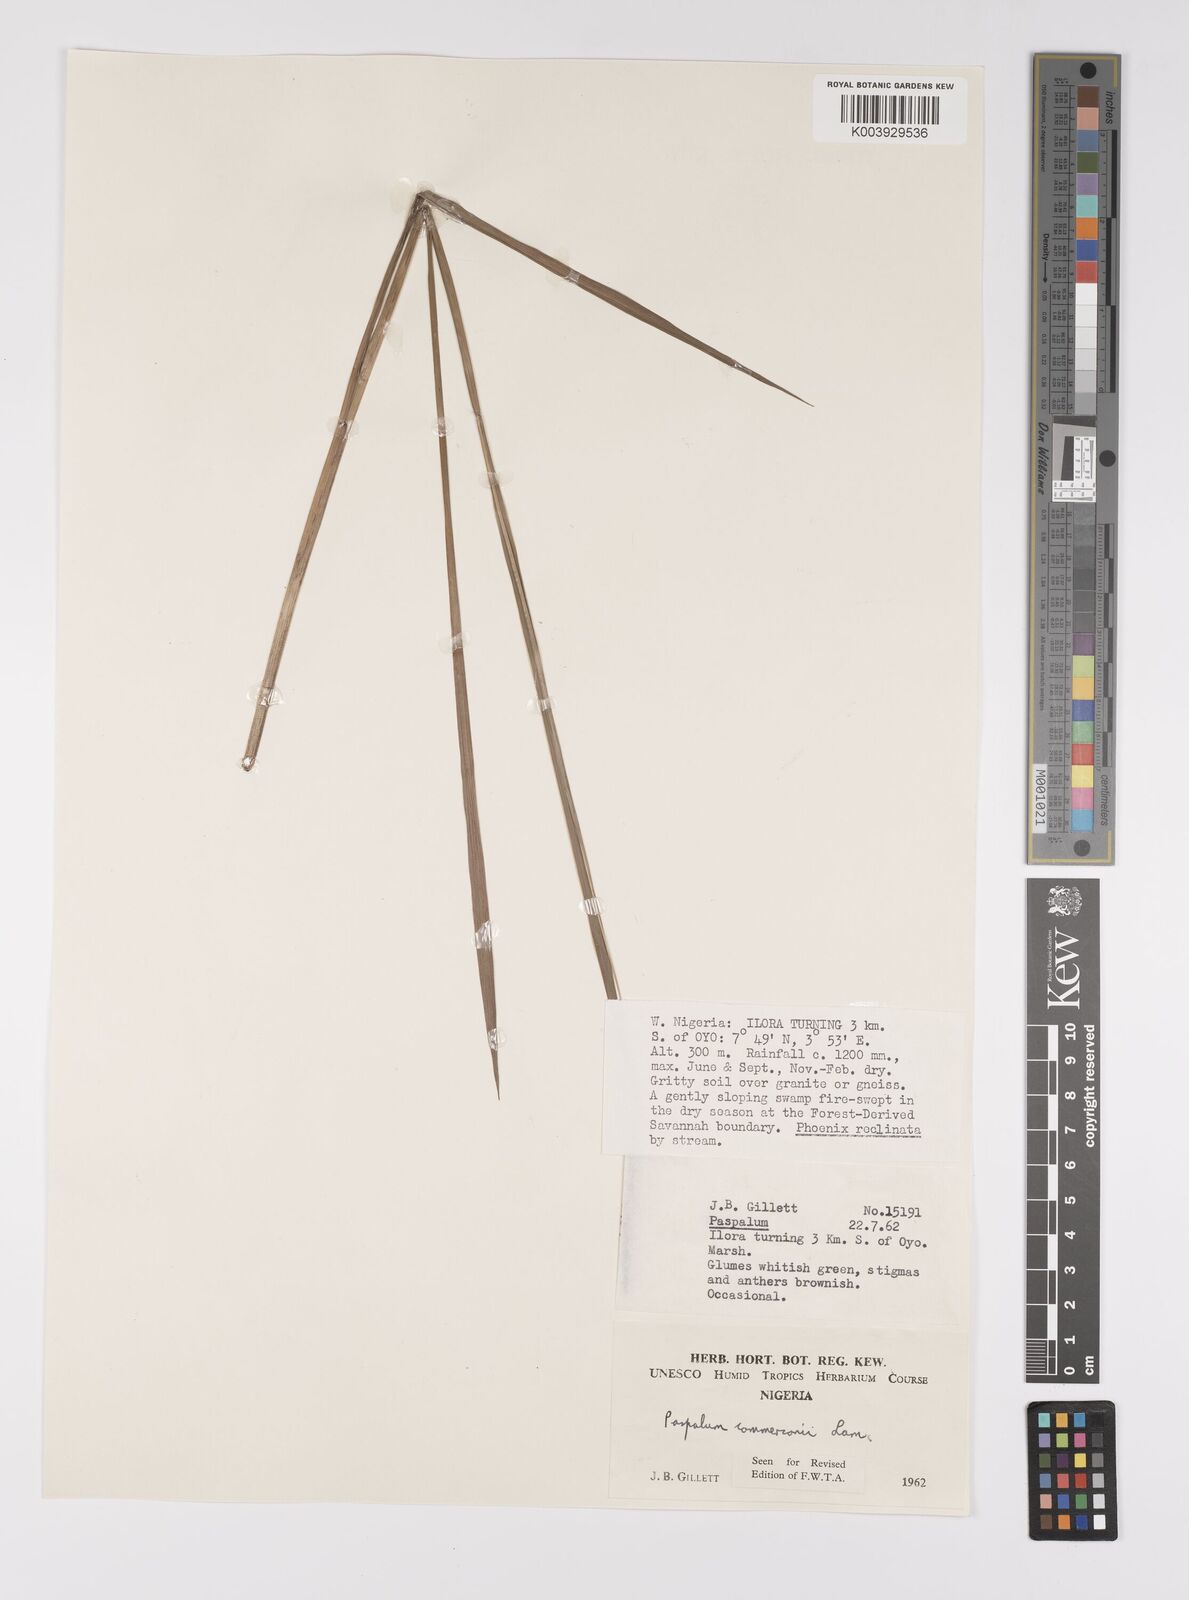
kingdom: Plantae
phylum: Tracheophyta
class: Liliopsida
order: Poales
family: Poaceae
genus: Paspalum
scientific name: Paspalum scrobiculatum
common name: Kodo millet
